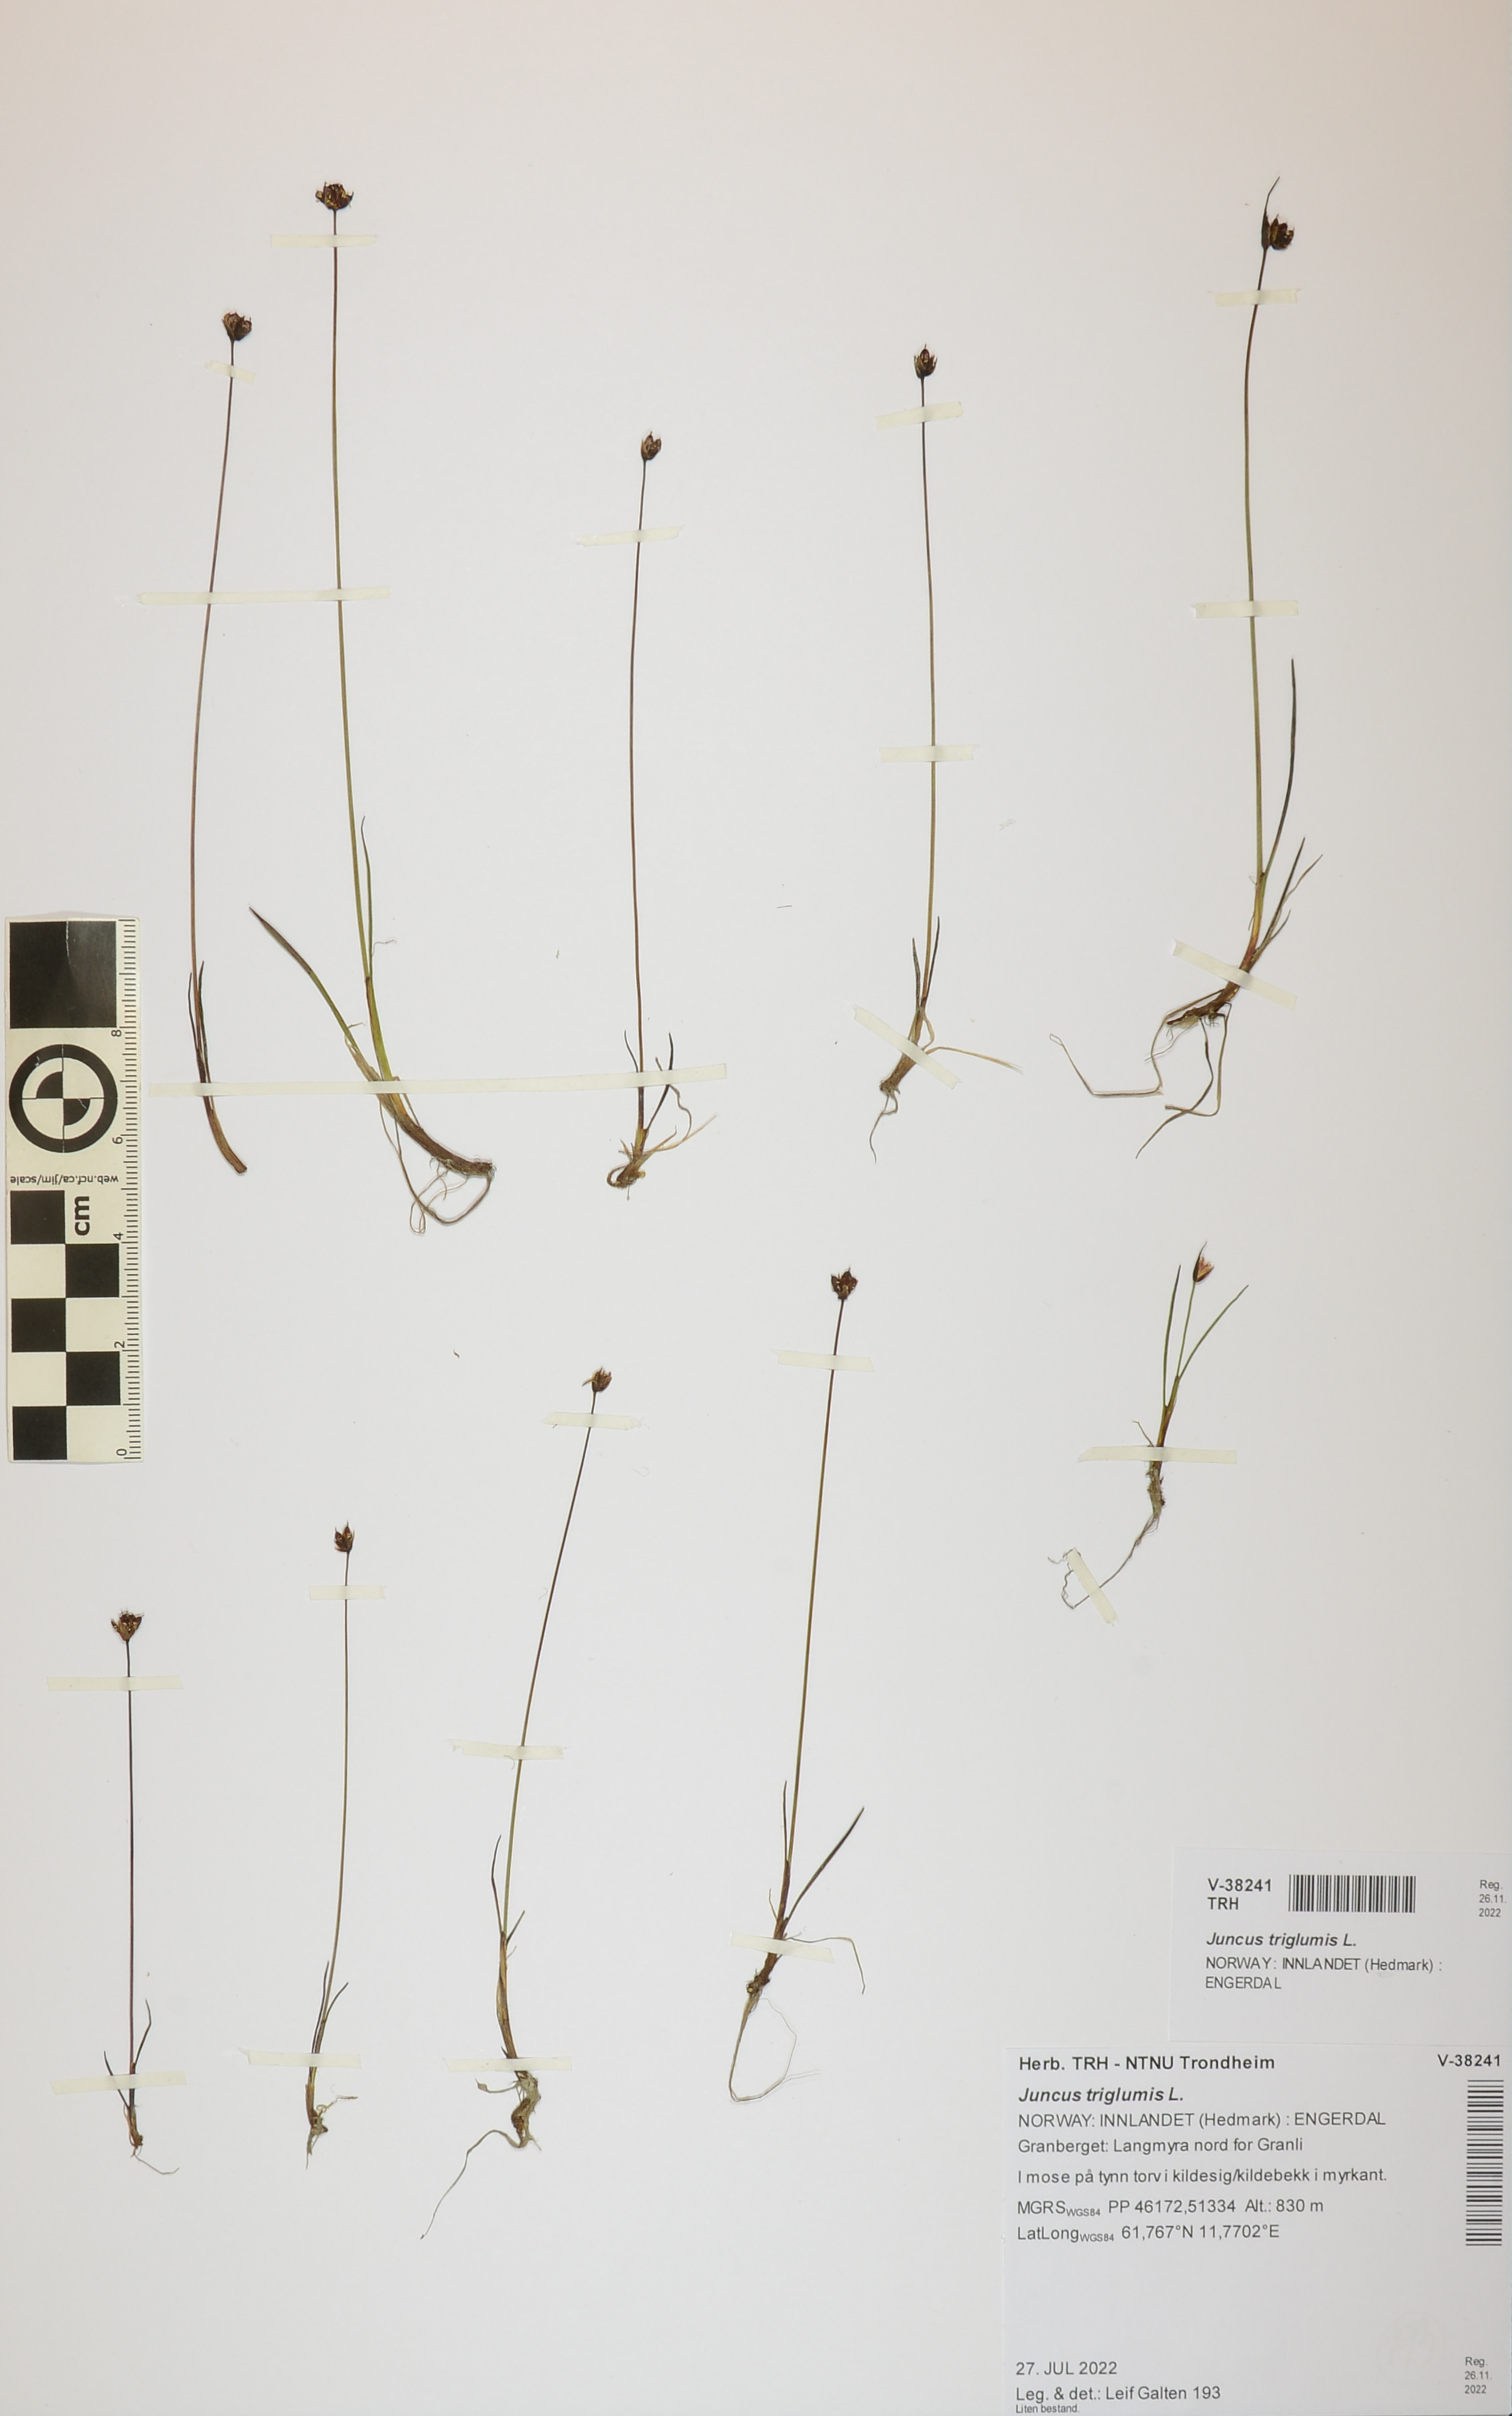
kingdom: Plantae
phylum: Tracheophyta
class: Liliopsida
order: Poales
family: Juncaceae
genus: Juncus
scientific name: Juncus triglumis
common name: Three-flowered rush
